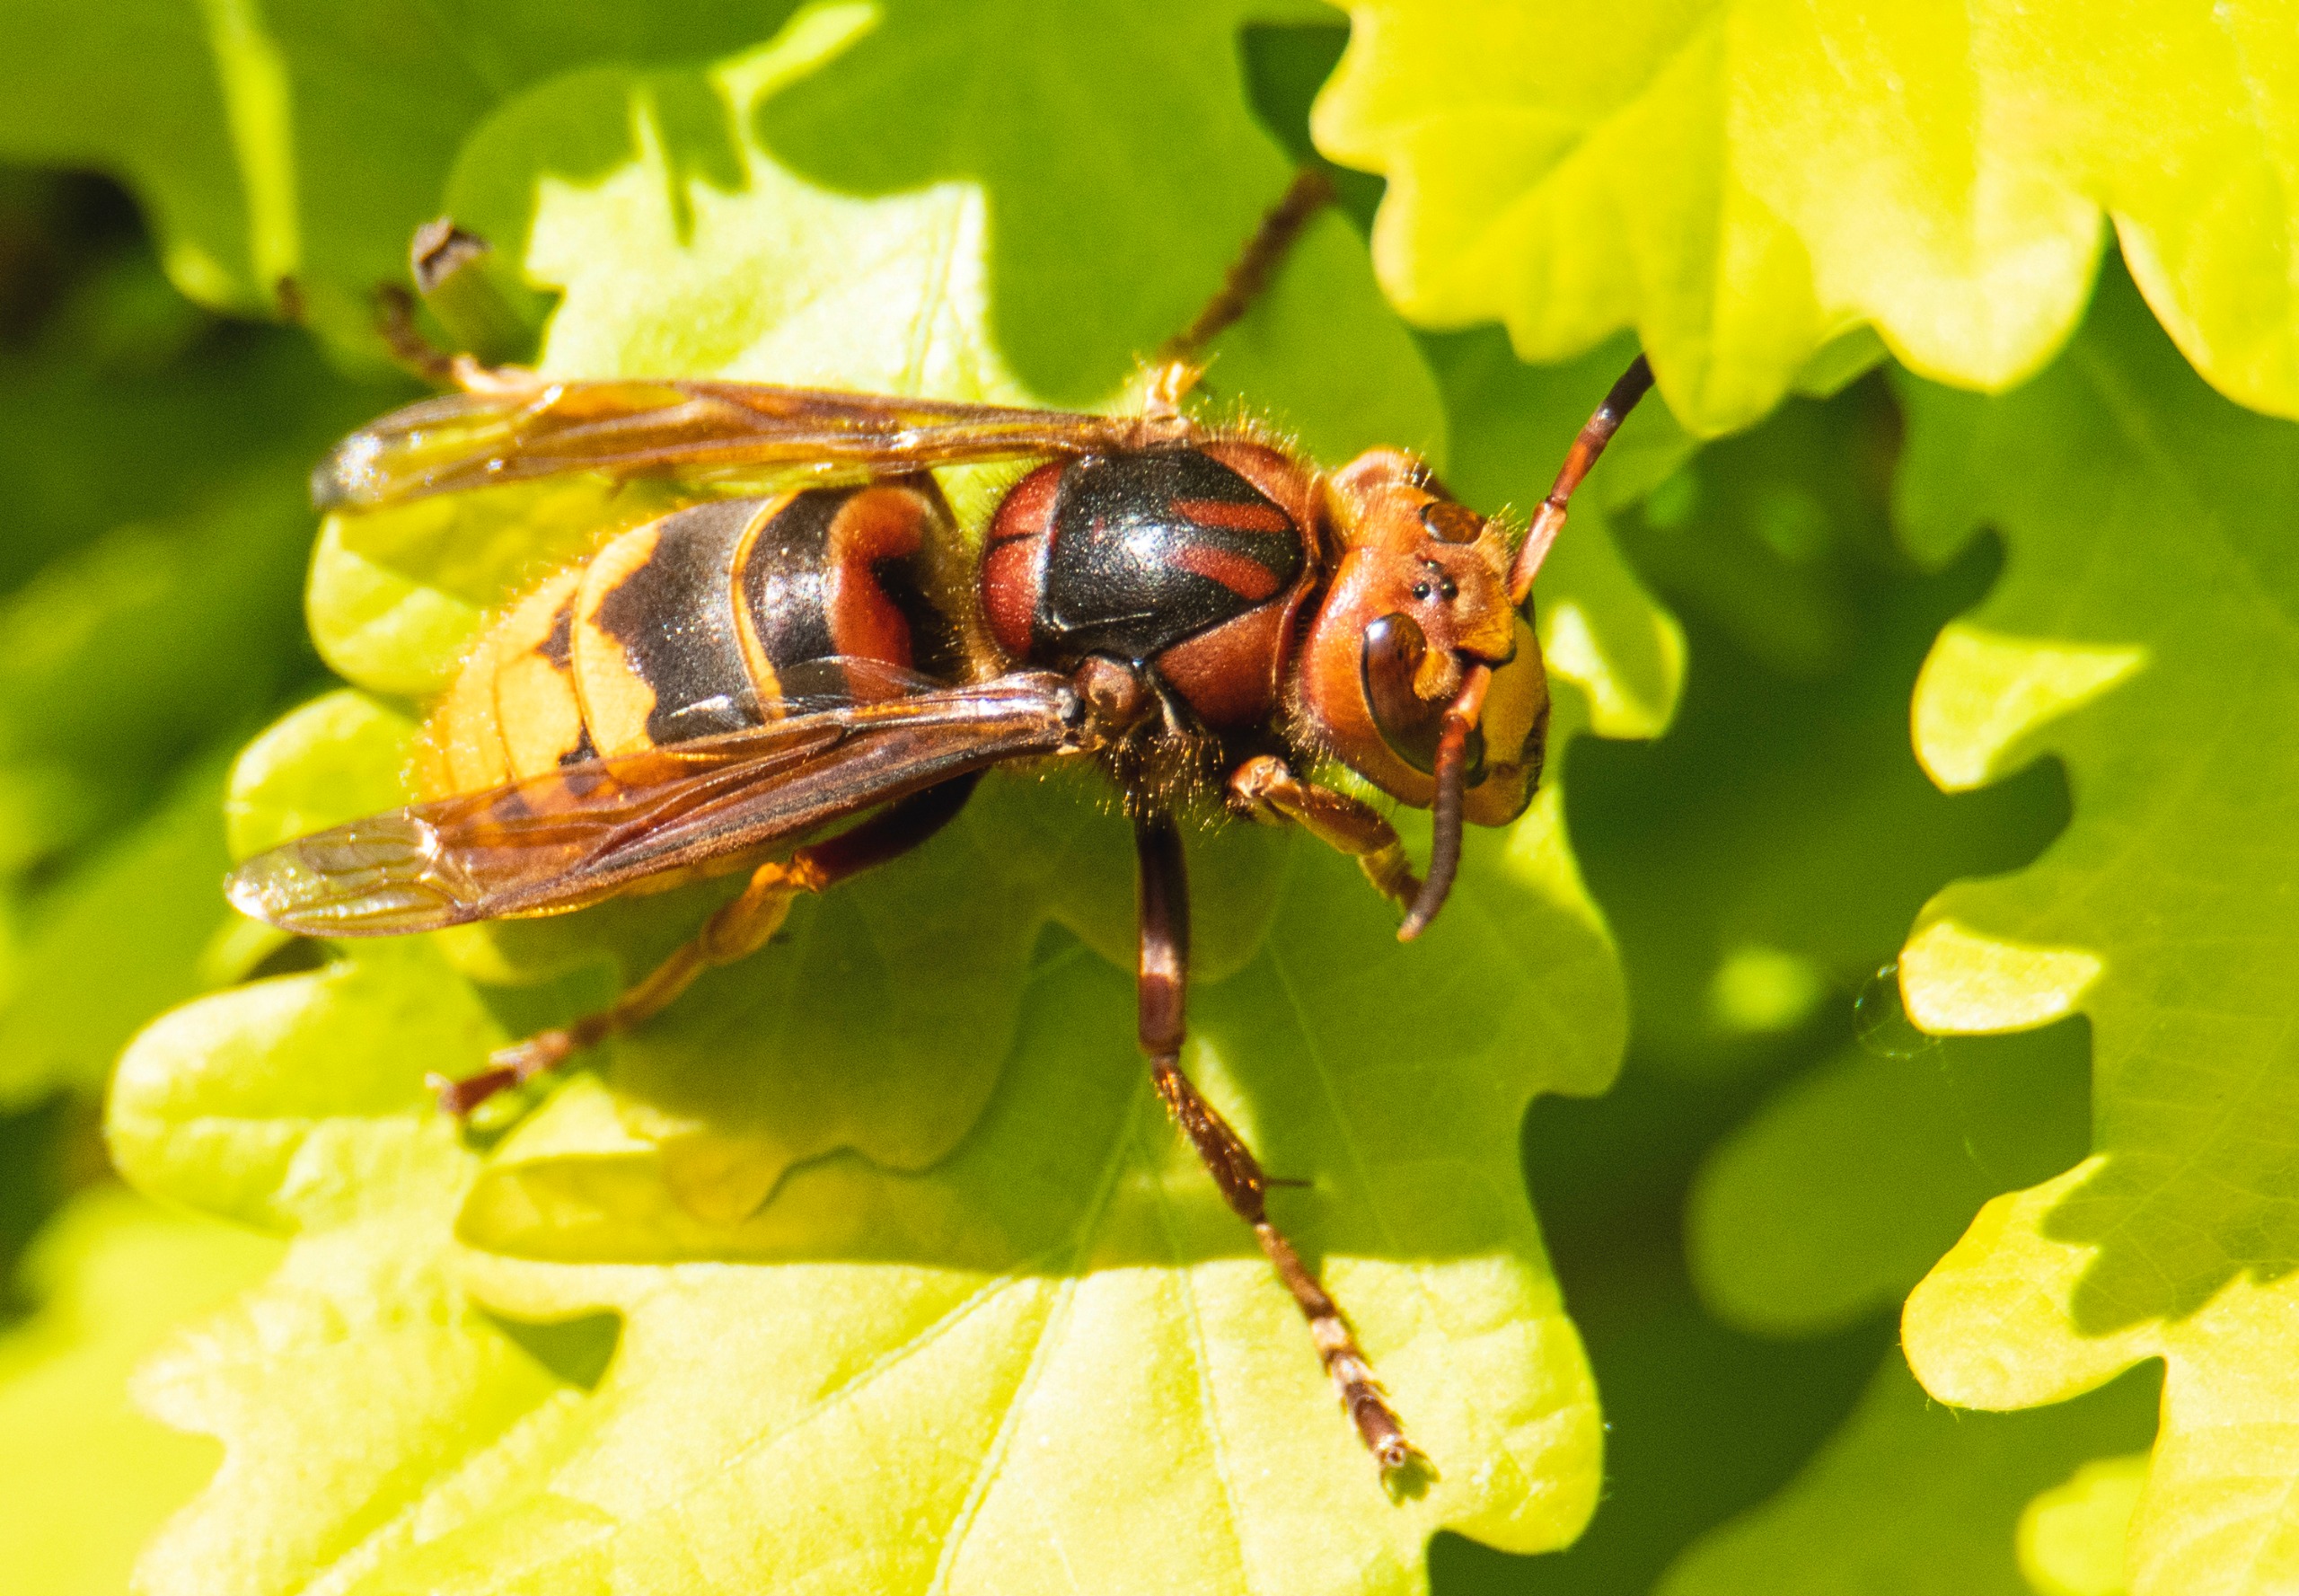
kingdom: Animalia
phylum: Arthropoda
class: Insecta
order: Hymenoptera
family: Vespidae
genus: Vespa
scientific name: Vespa crabro
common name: Stor gedehams
